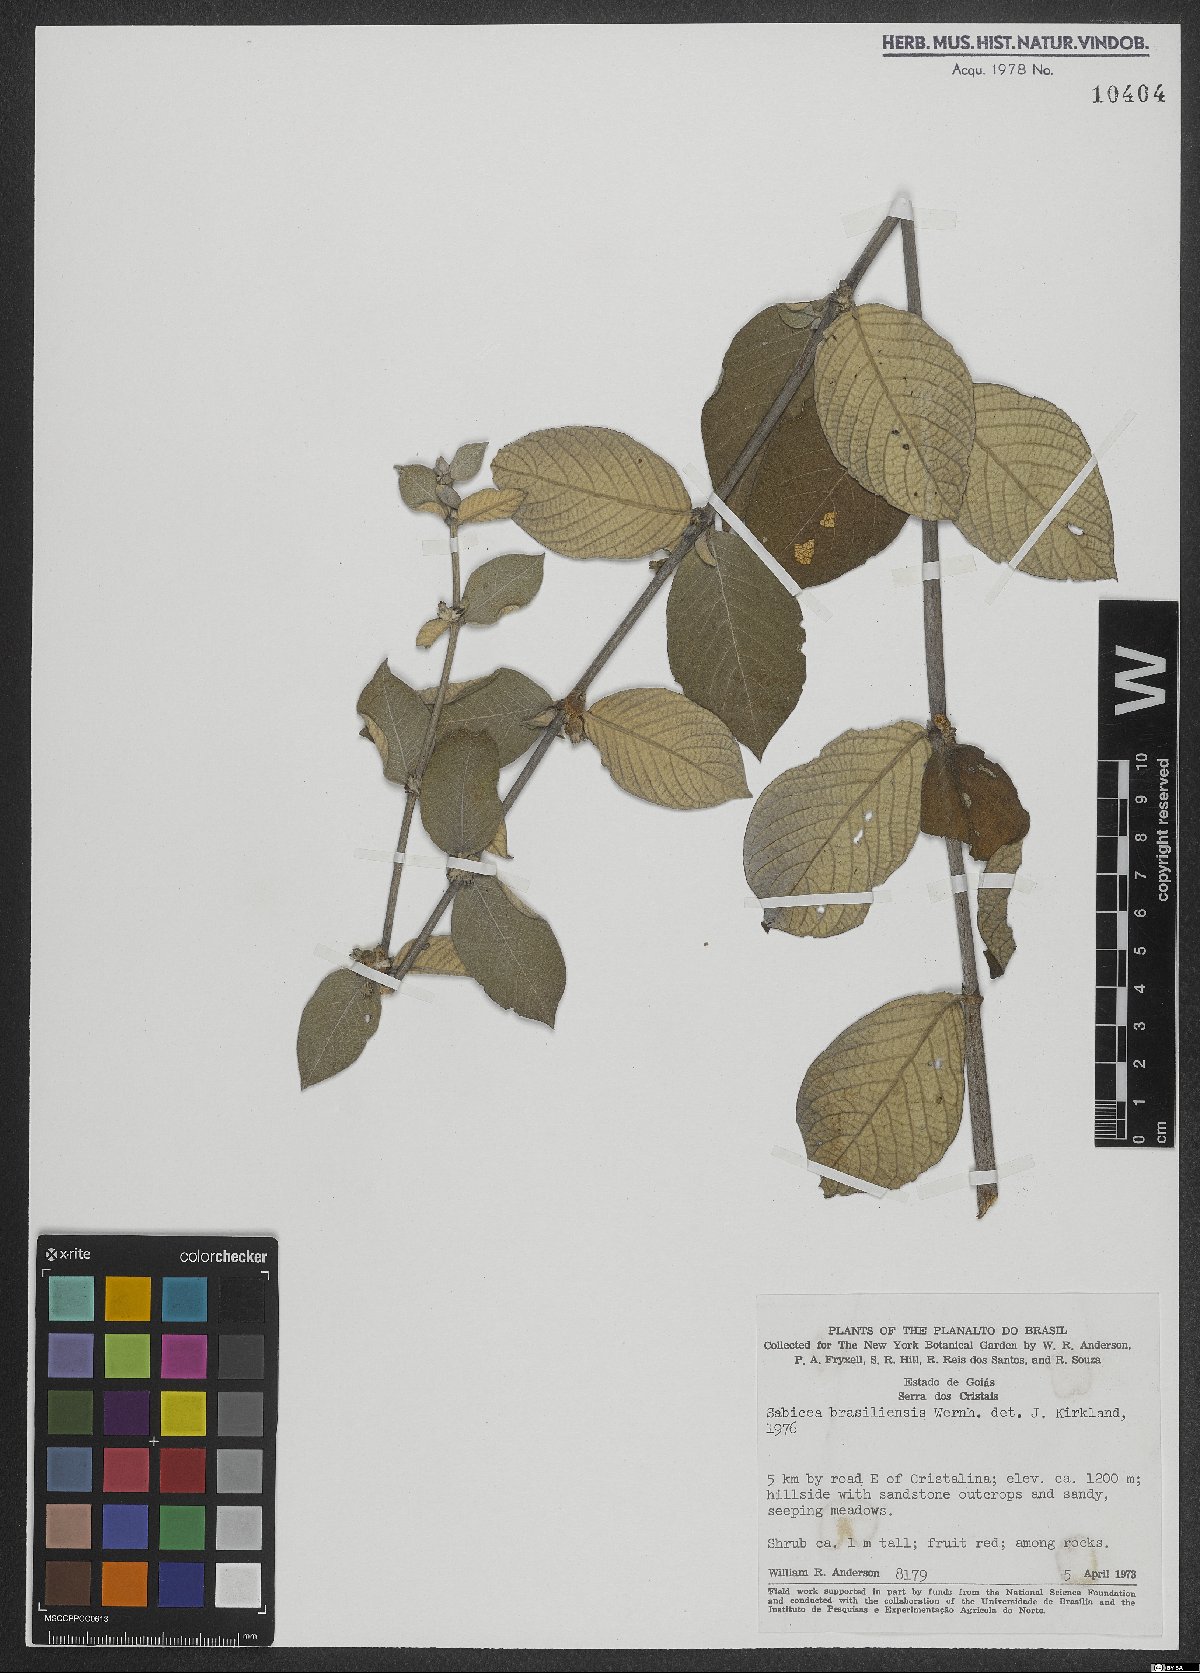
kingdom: Plantae
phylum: Tracheophyta
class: Magnoliopsida
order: Gentianales
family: Rubiaceae
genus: Sabicea
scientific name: Sabicea brasiliensis
